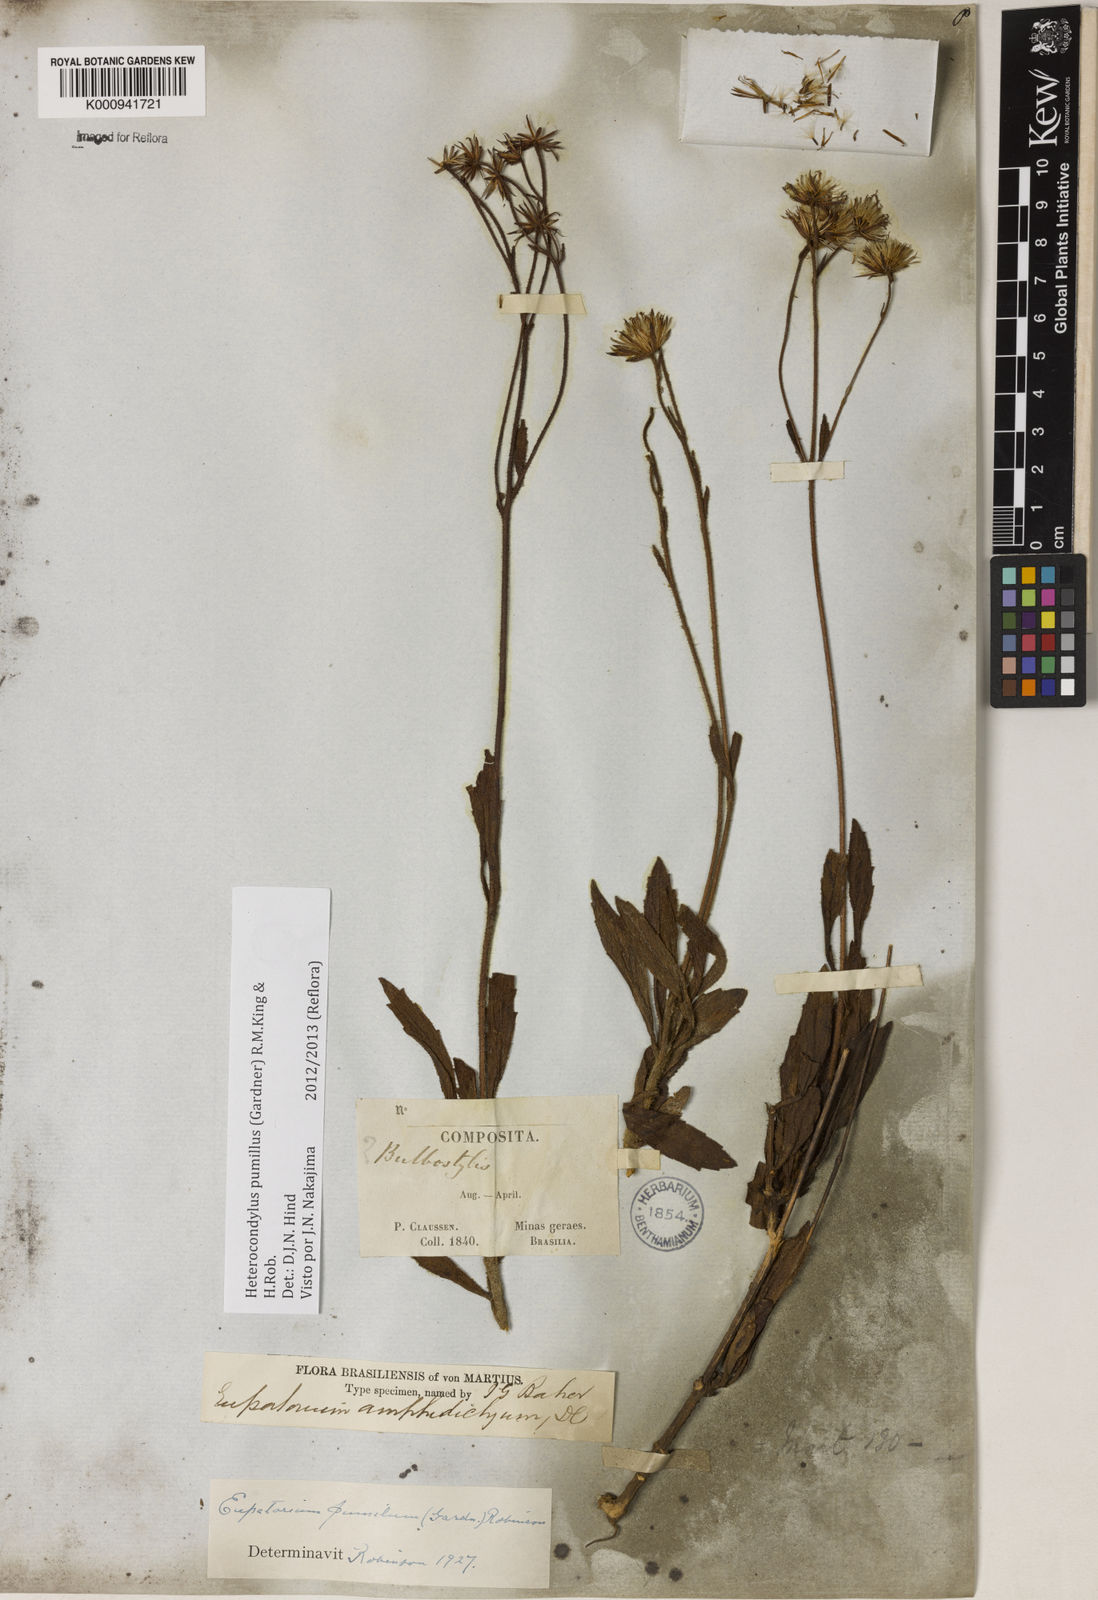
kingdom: Plantae
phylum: Tracheophyta
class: Magnoliopsida
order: Asterales
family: Asteraceae
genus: Heterocondylus
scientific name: Heterocondylus pumilus
